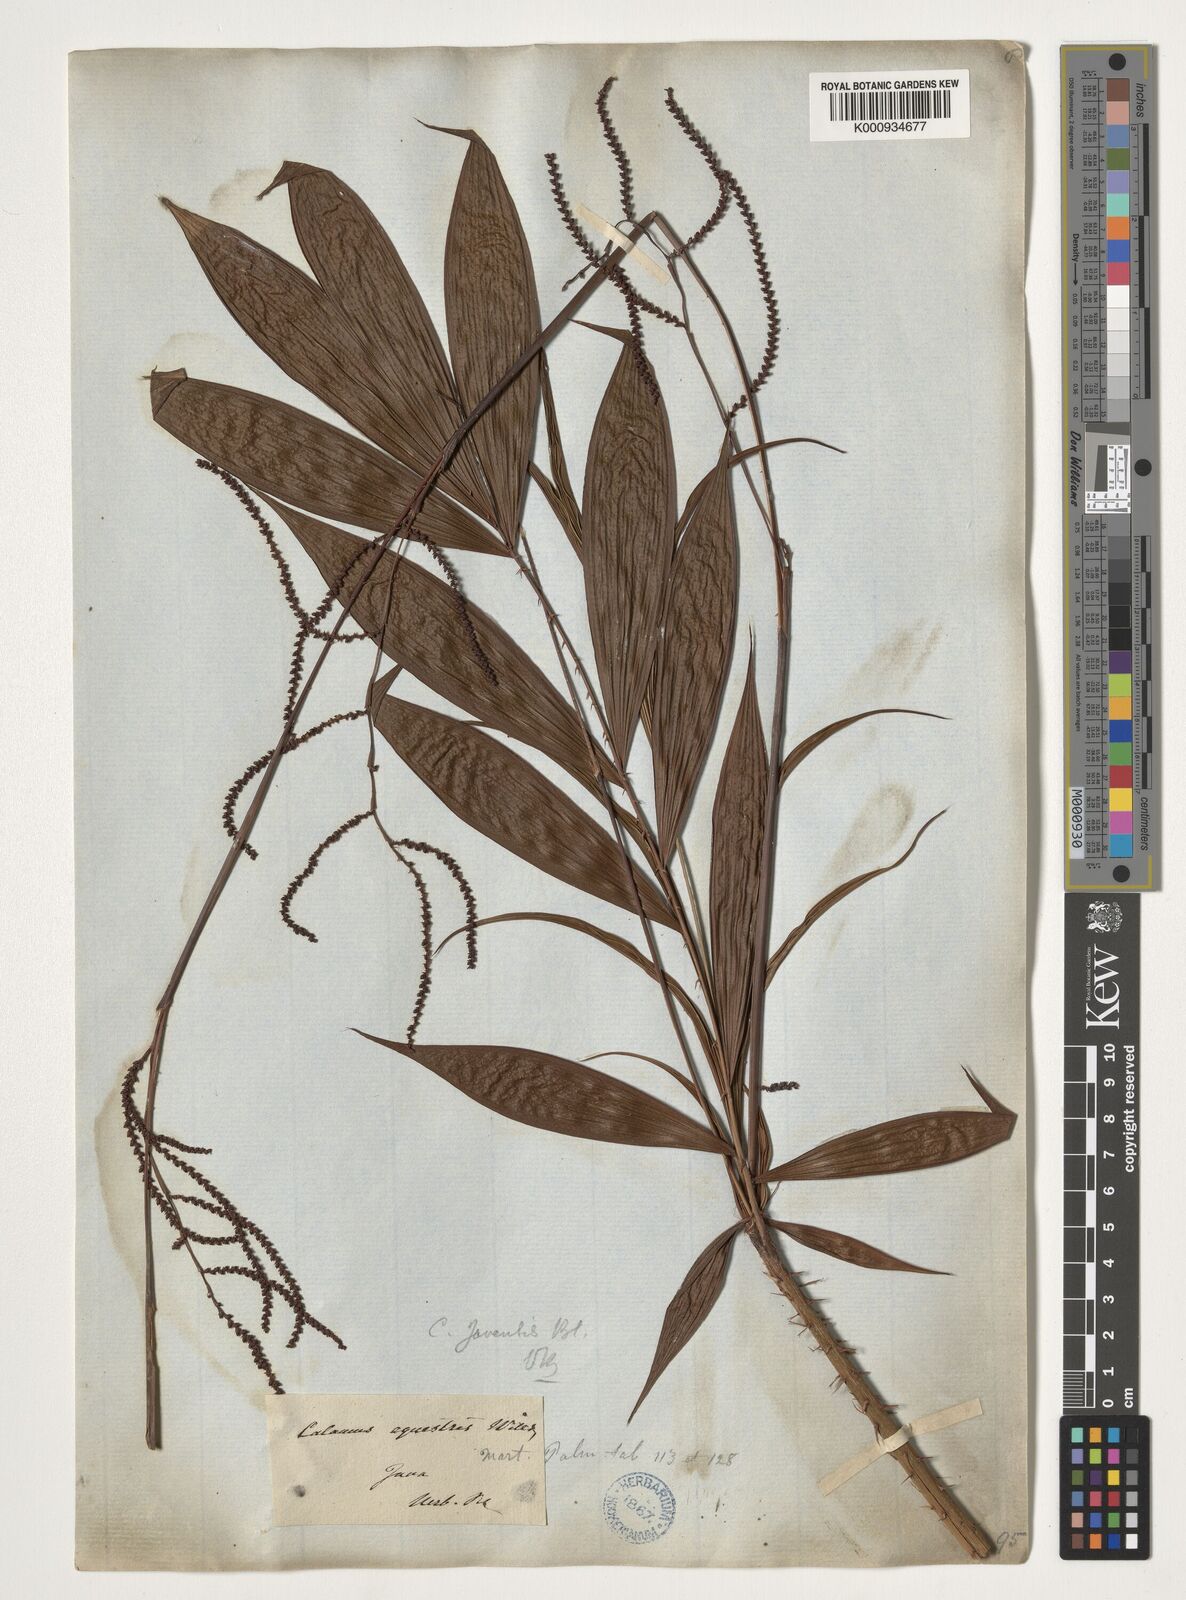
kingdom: Plantae
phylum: Tracheophyta
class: Liliopsida
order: Arecales
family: Arecaceae
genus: Calamus
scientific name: Calamus javensis
